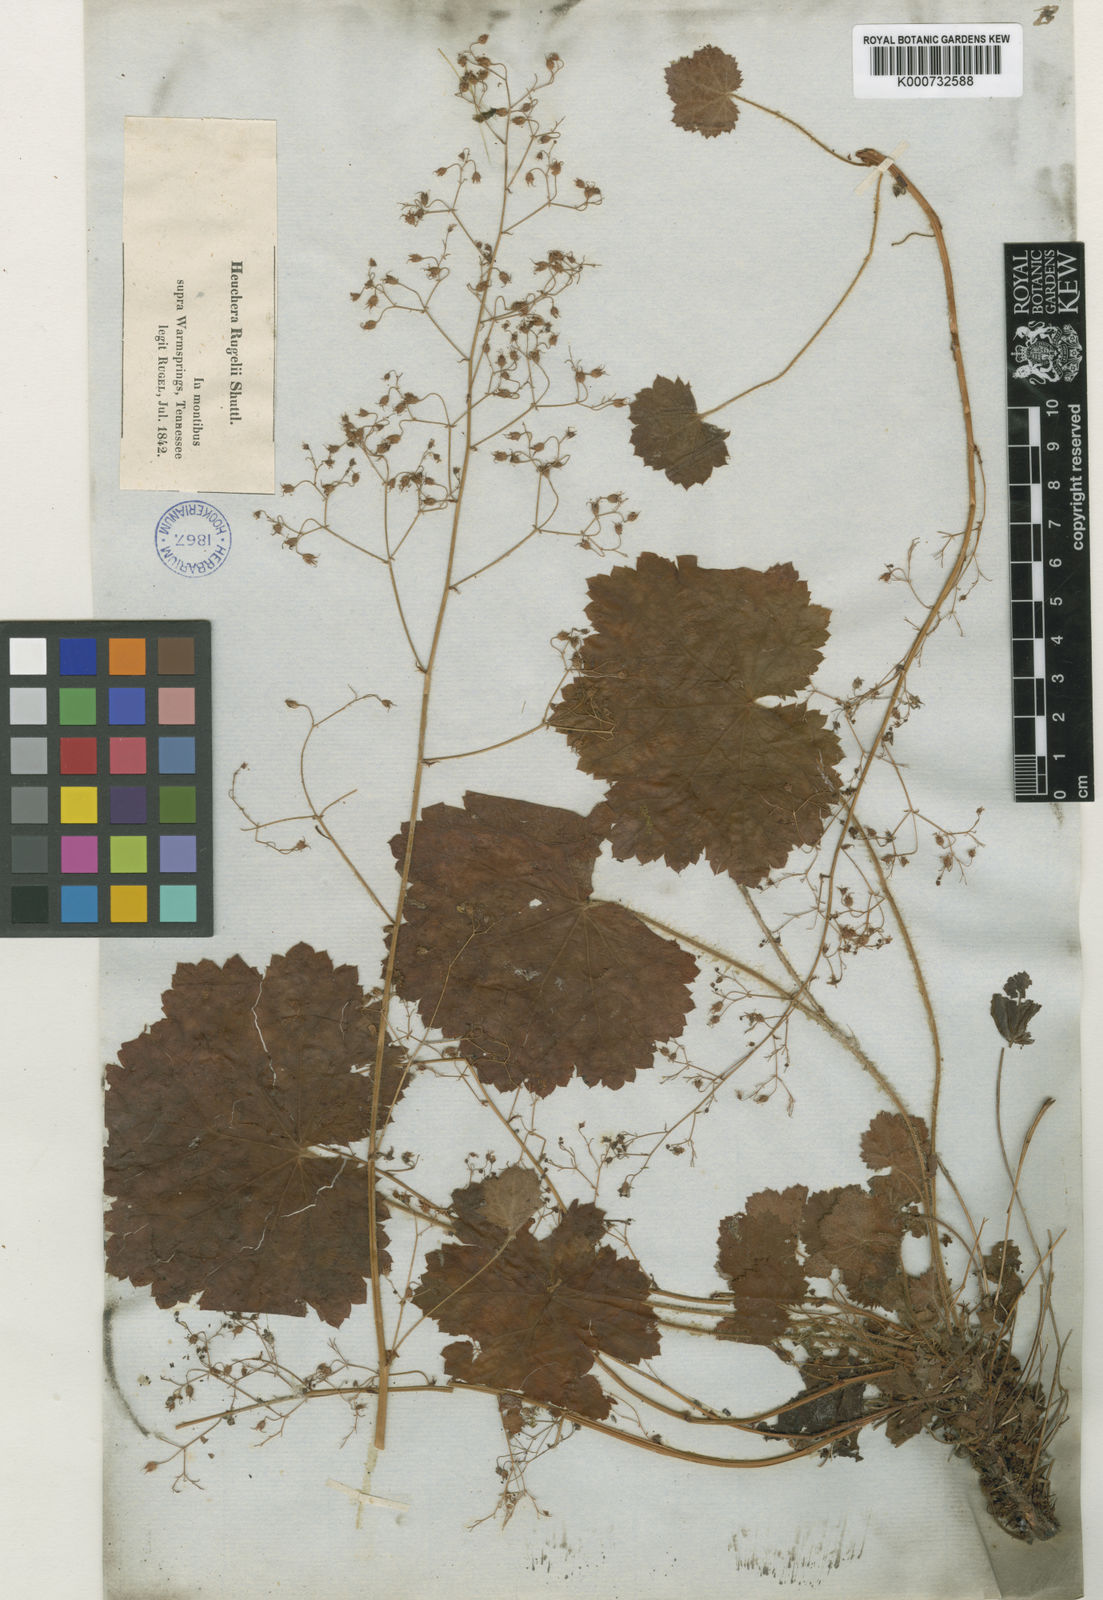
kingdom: Plantae
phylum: Tracheophyta
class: Magnoliopsida
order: Saxifragales
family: Saxifragaceae
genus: Heuchera
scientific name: Heuchera parviflora
